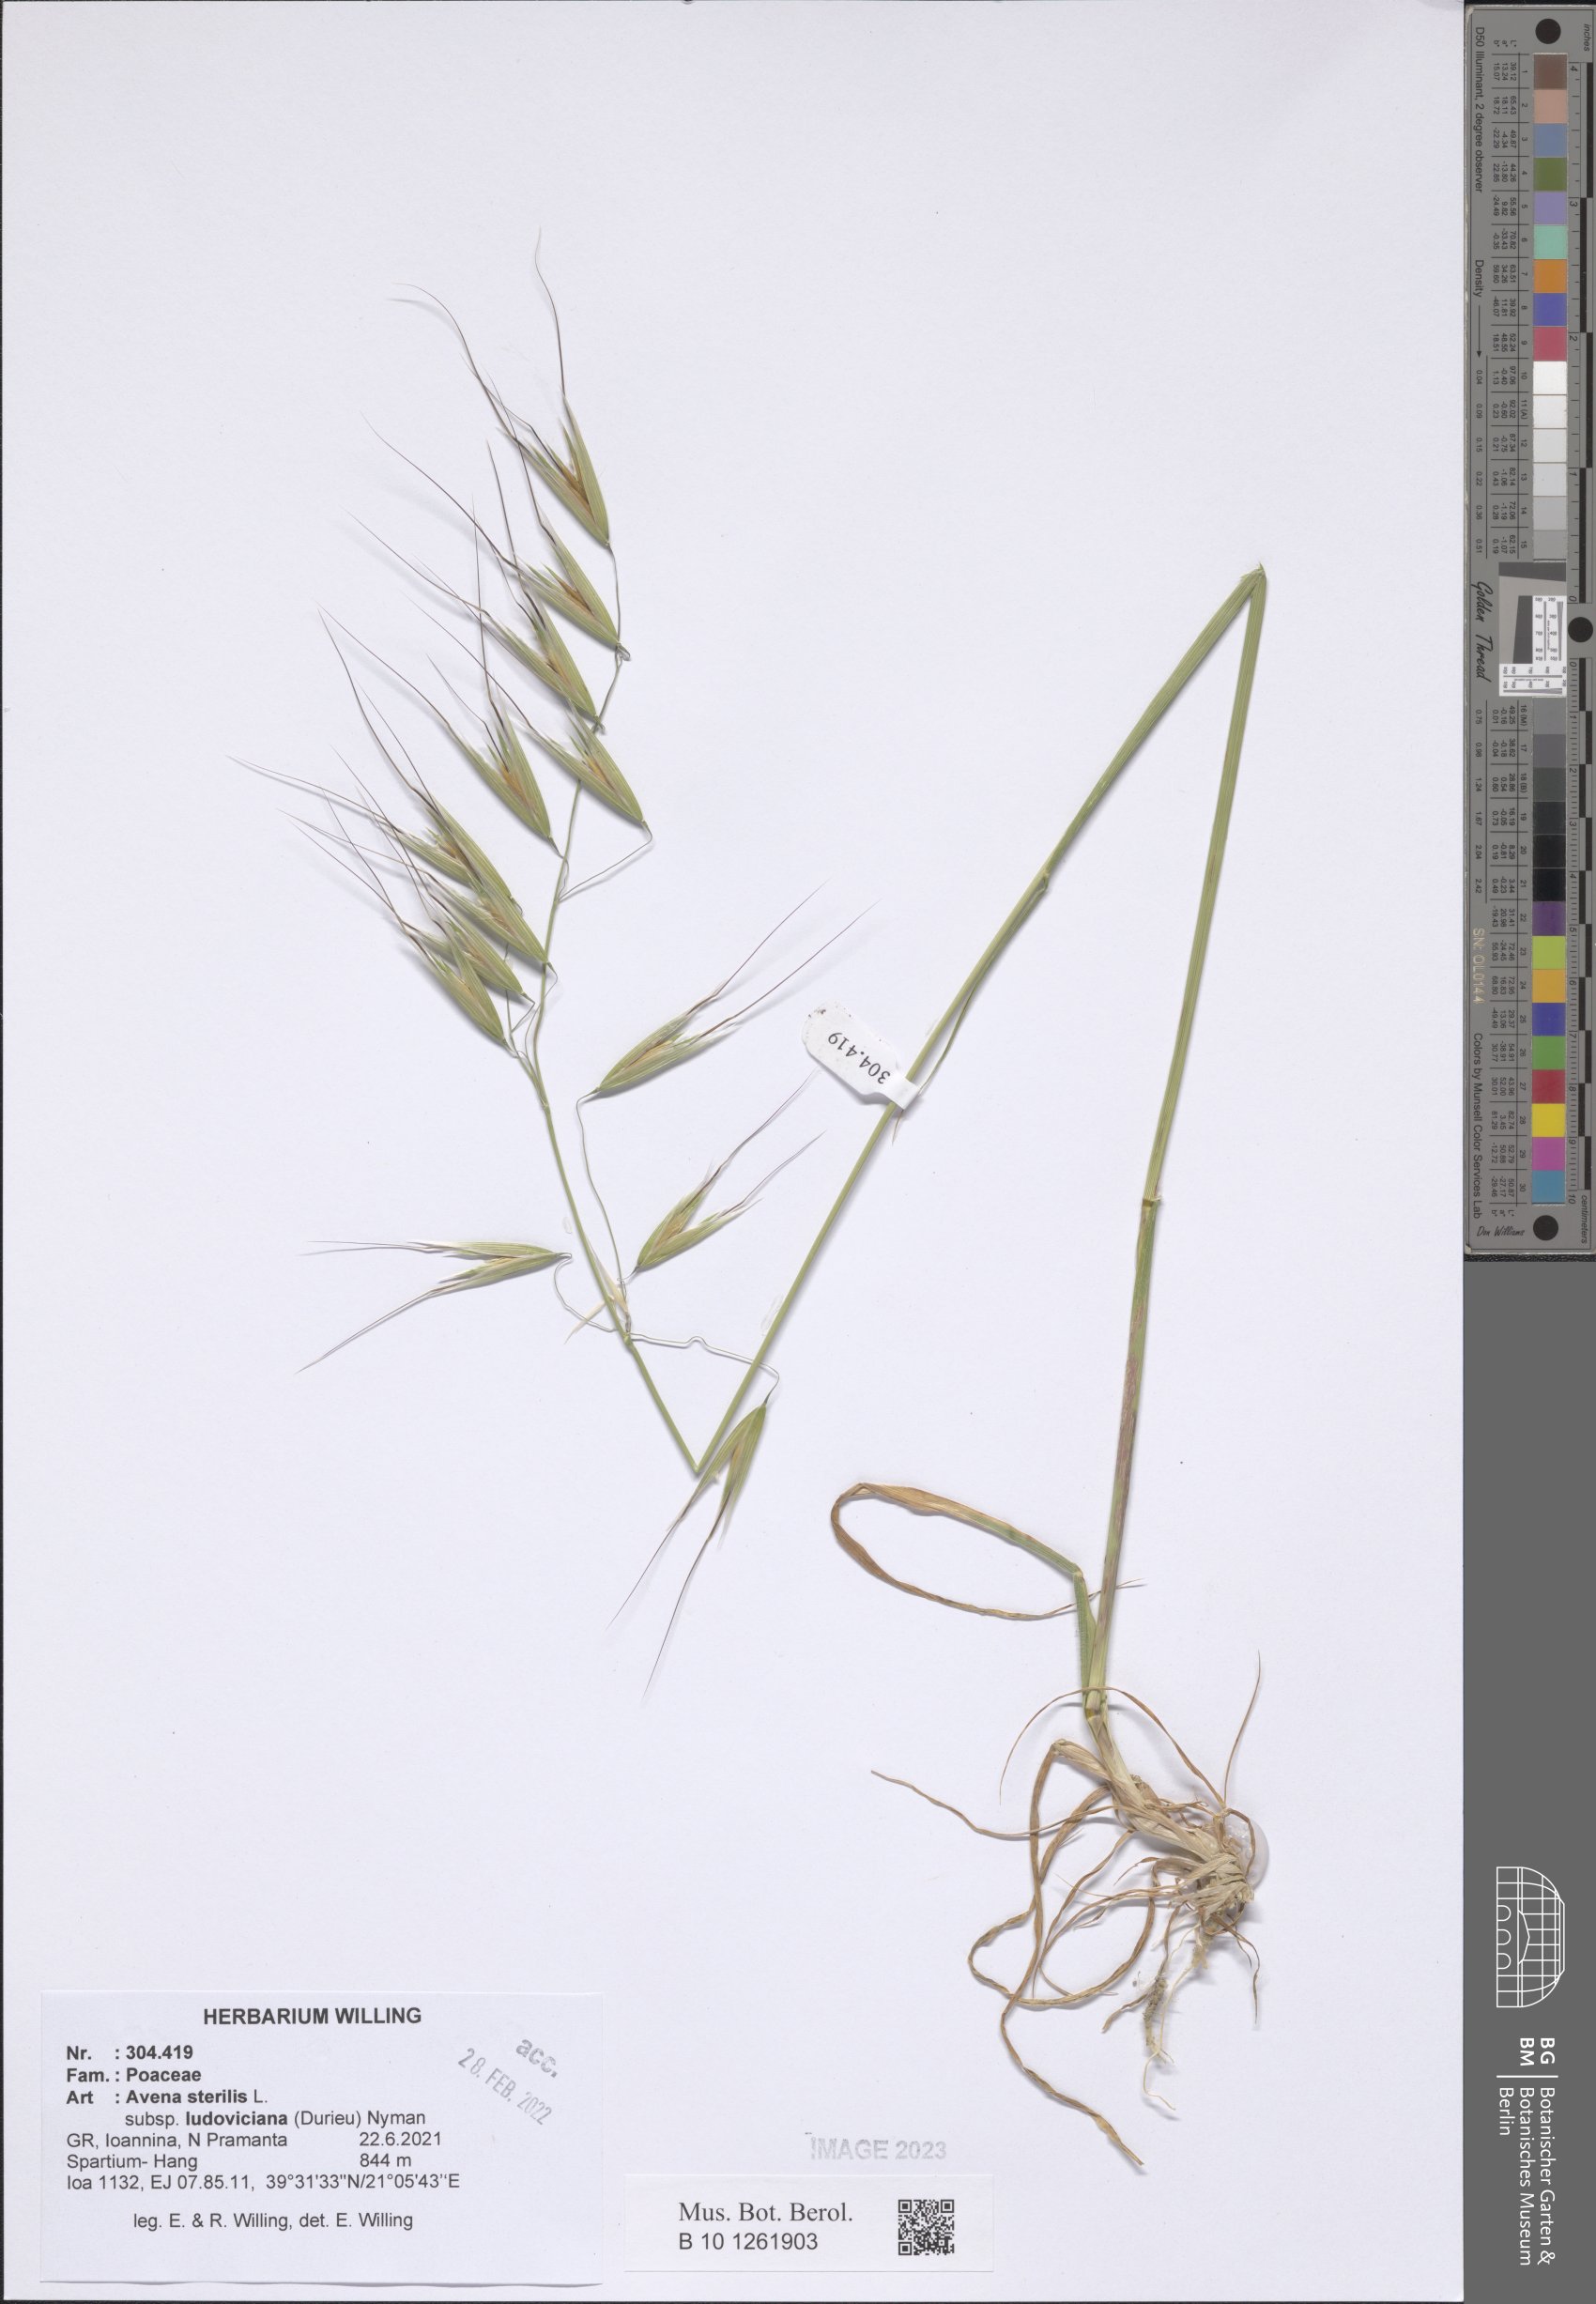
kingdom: Plantae
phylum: Tracheophyta
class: Liliopsida
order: Poales
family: Poaceae
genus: Avena
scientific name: Avena sterilis
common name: Animated oat
